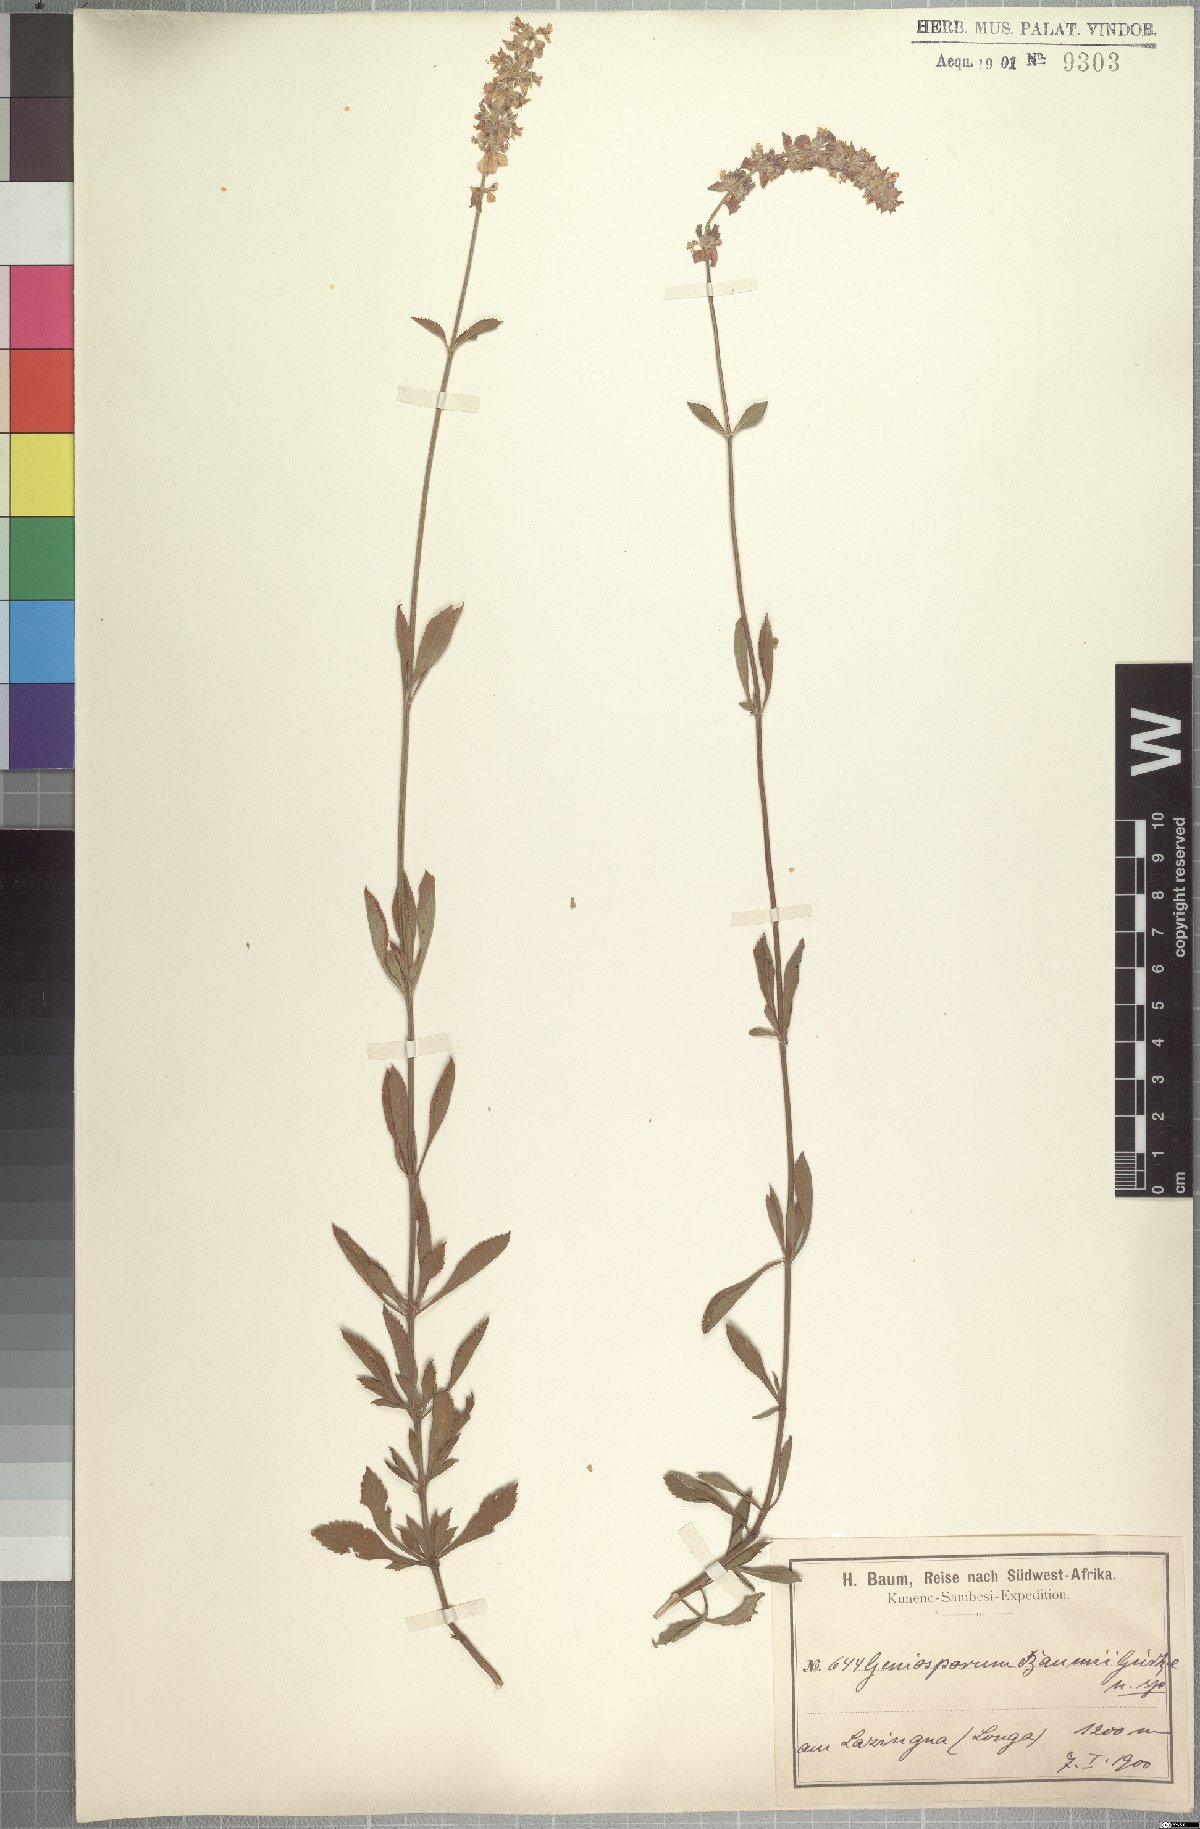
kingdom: Plantae
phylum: Tracheophyta
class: Magnoliopsida
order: Lamiales
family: Lamiaceae
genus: Platostoma
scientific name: Platostoma strictum
